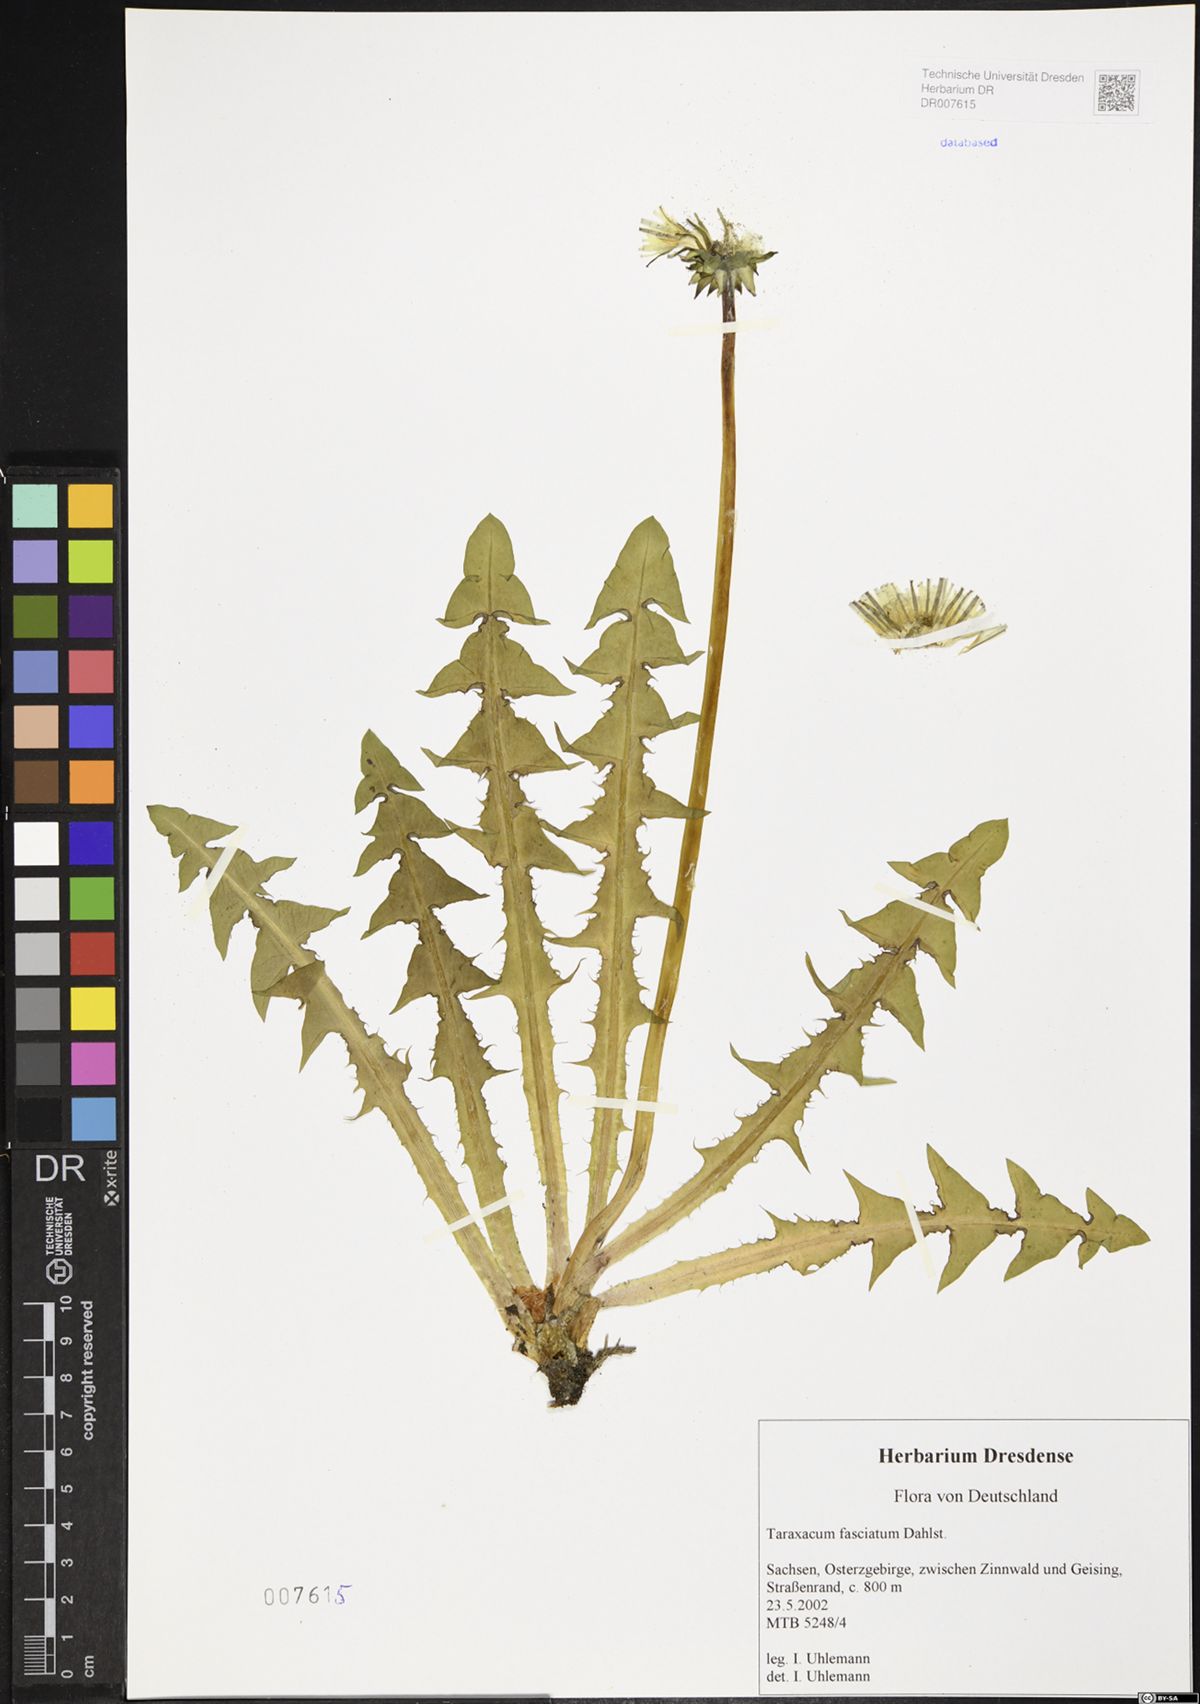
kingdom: Plantae
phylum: Tracheophyta
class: Magnoliopsida
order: Asterales
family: Asteraceae
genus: Taraxacum
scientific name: Taraxacum fasciatum
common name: Dense-bracted dandelion
